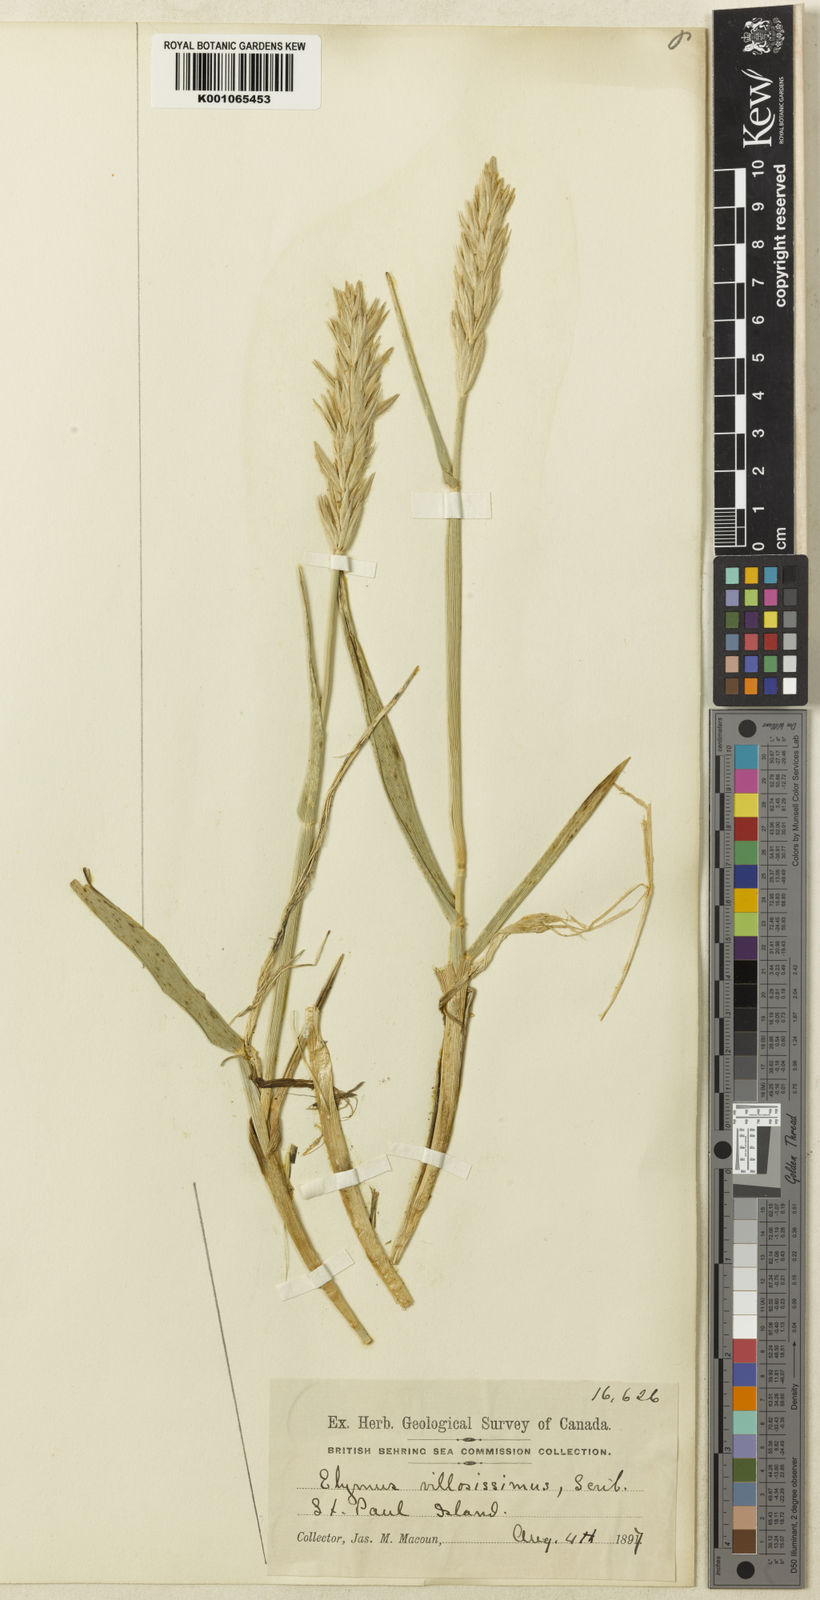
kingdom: Plantae
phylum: Tracheophyta
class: Liliopsida
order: Poales
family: Poaceae
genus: Leymus
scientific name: Leymus villosissimus
